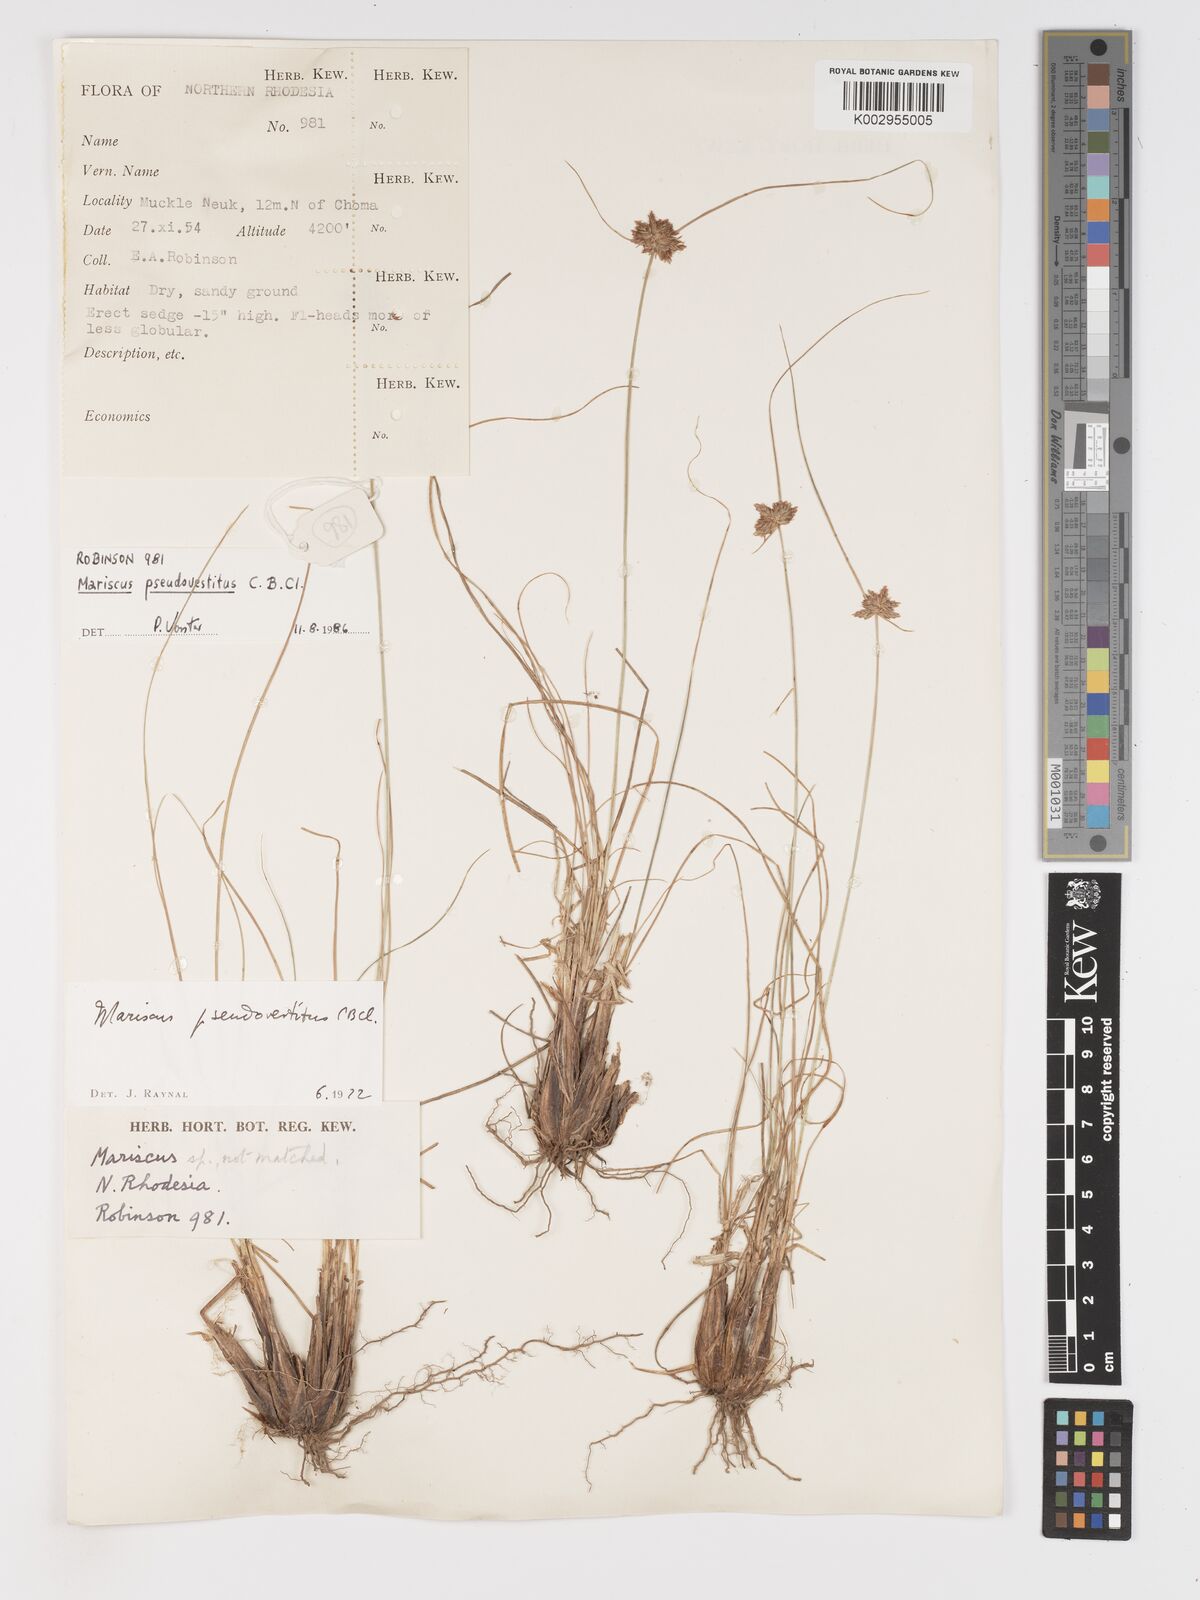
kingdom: Plantae
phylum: Tracheophyta
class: Liliopsida
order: Poales
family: Cyperaceae
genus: Cyperus
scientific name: Cyperus pseudovestitus
